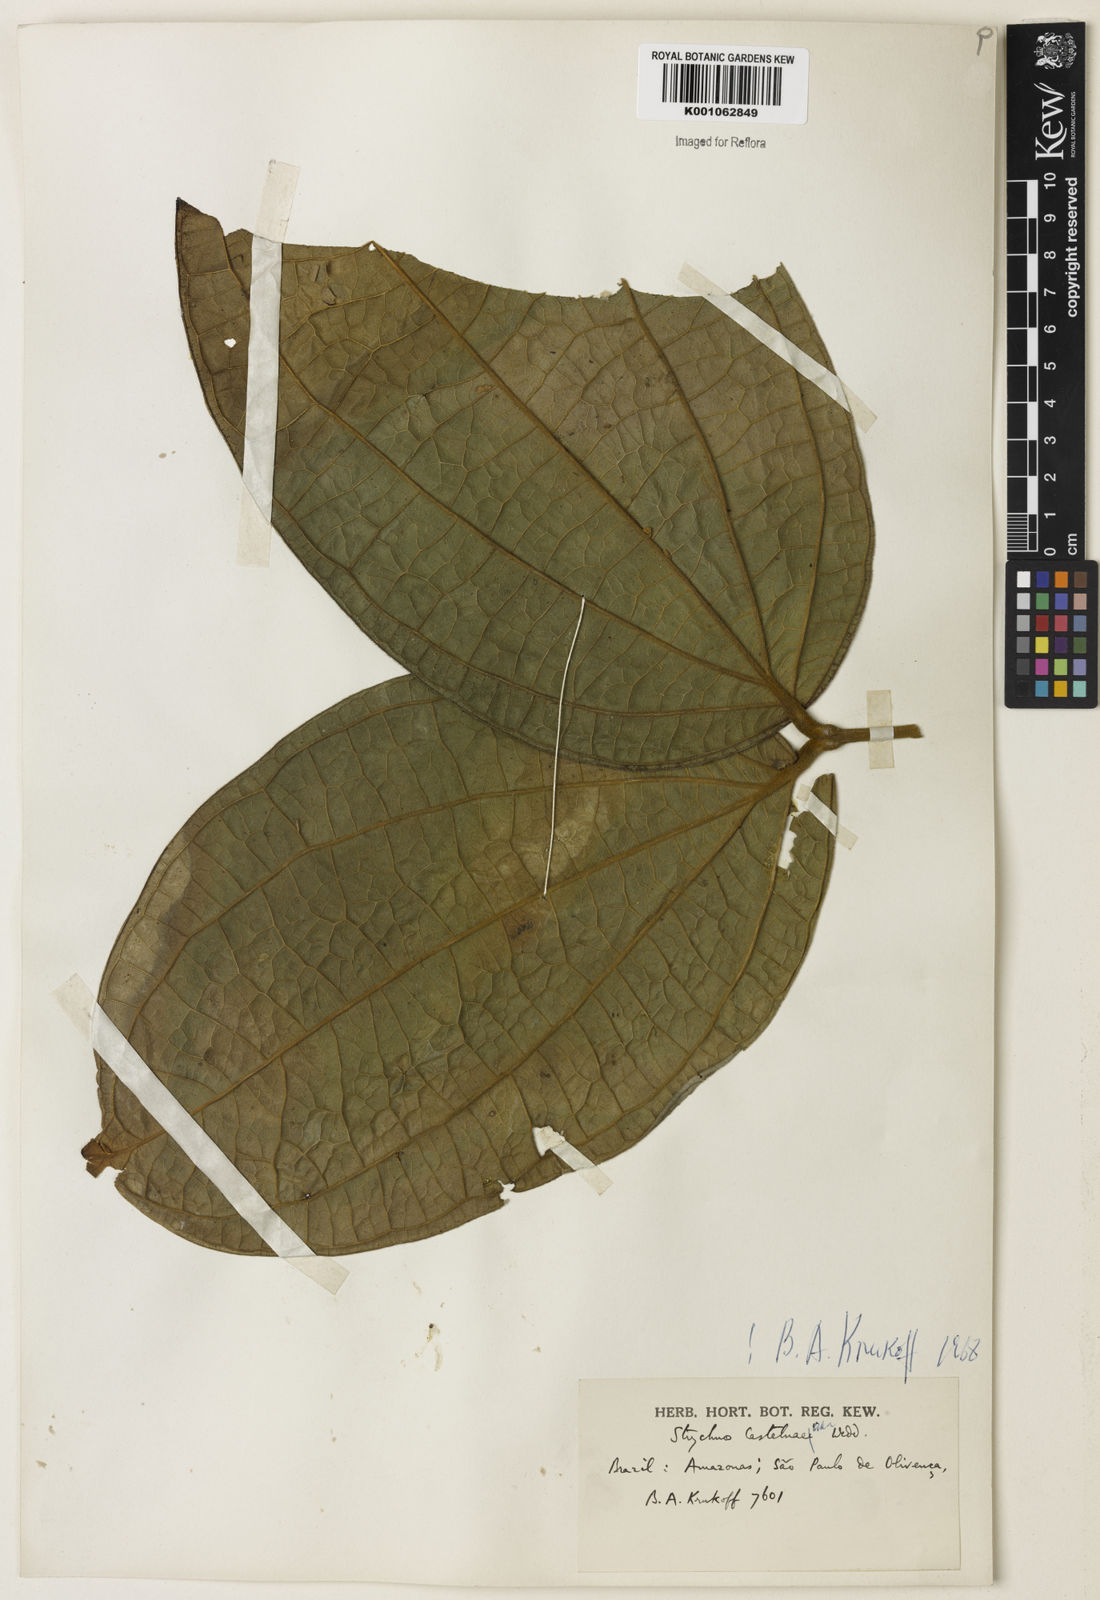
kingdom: Plantae
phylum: Tracheophyta
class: Magnoliopsida
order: Gentianales
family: Loganiaceae
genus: Strychnos
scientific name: Strychnos
